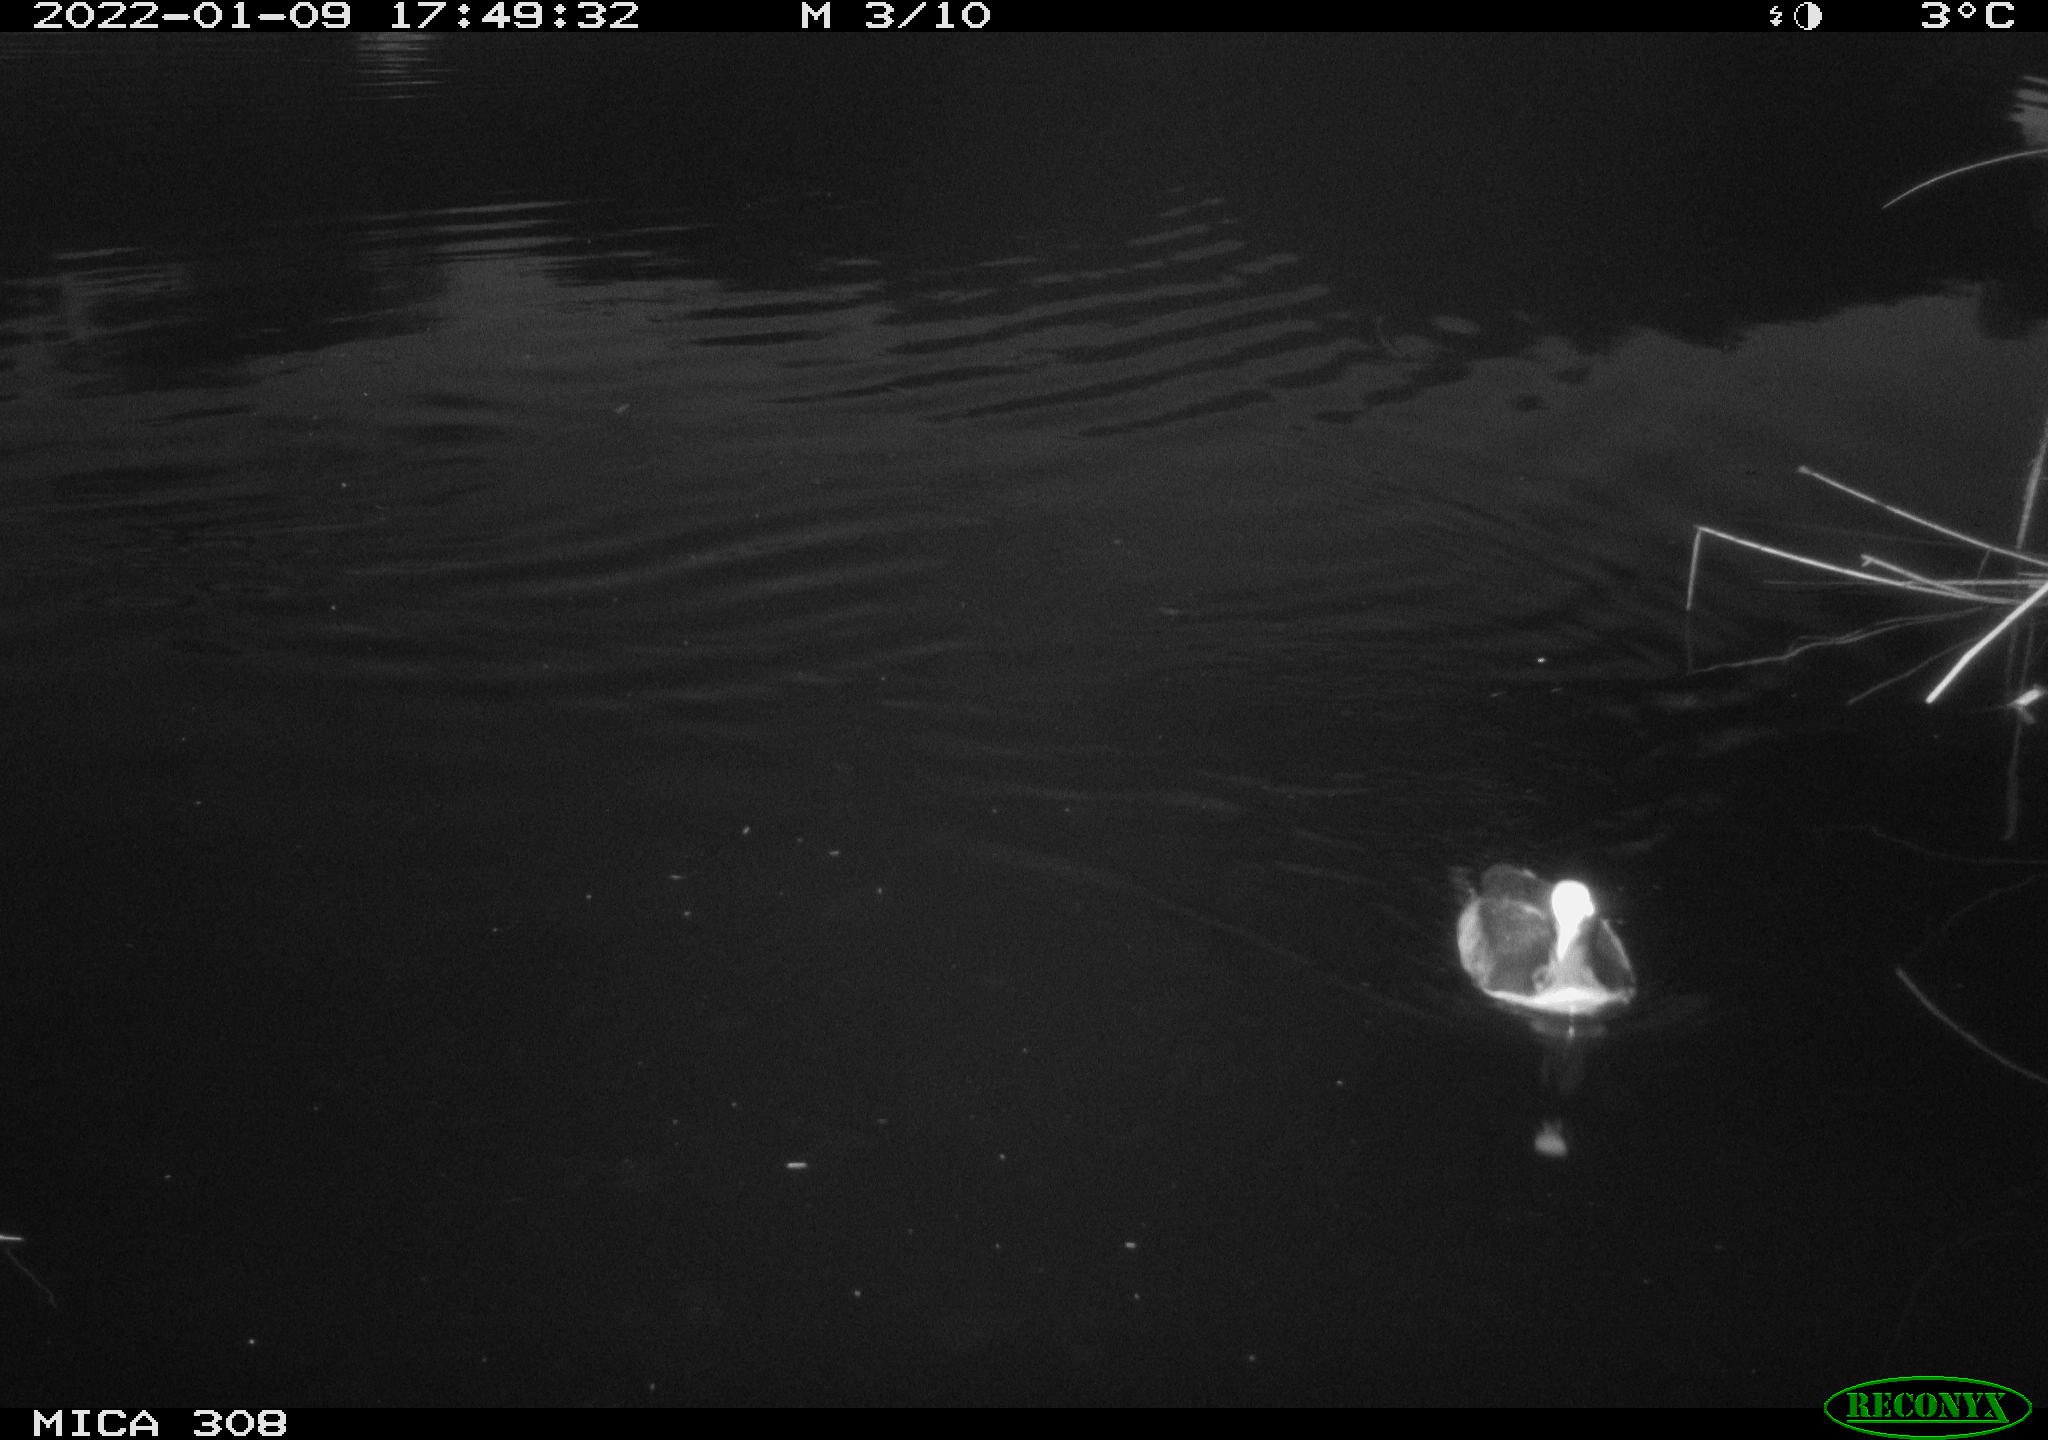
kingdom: Animalia
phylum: Chordata
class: Aves
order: Anseriformes
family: Anatidae
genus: Anas
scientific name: Anas
